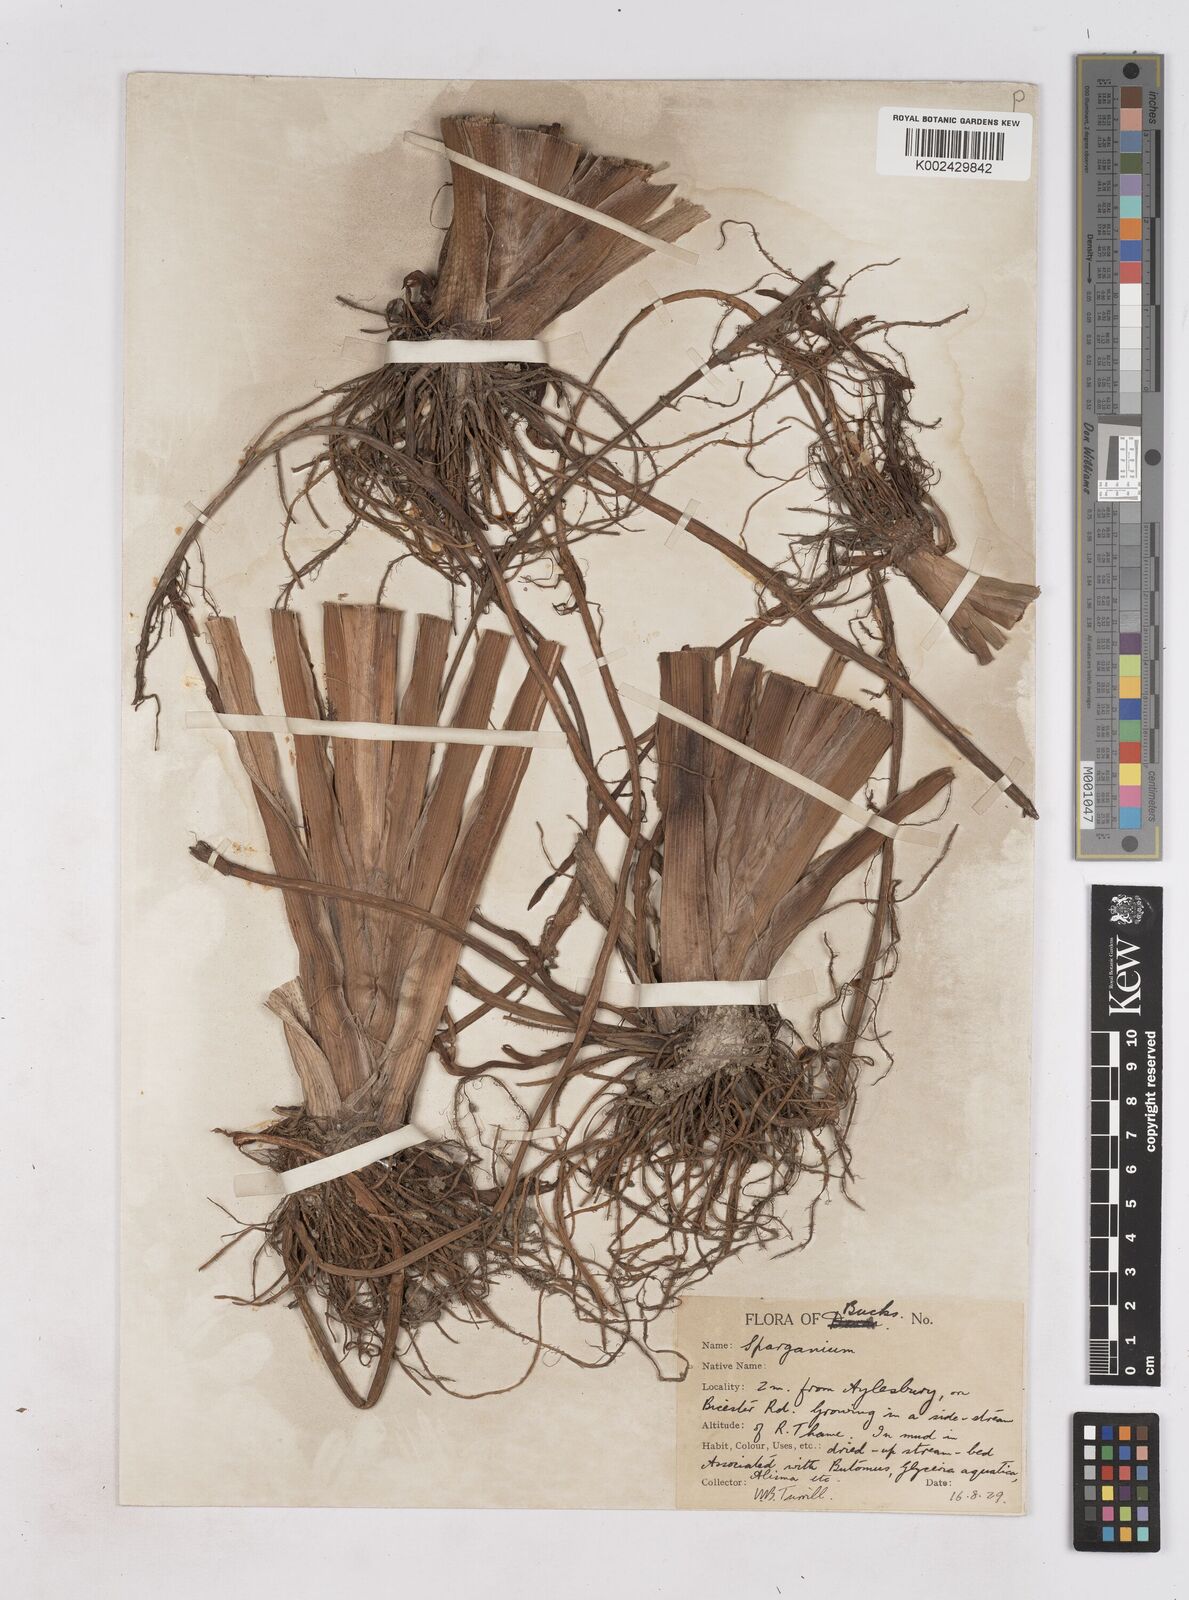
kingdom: Plantae
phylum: Tracheophyta
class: Liliopsida
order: Poales
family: Typhaceae
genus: Sparganium
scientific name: Sparganium erectum
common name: Branched bur-reed
